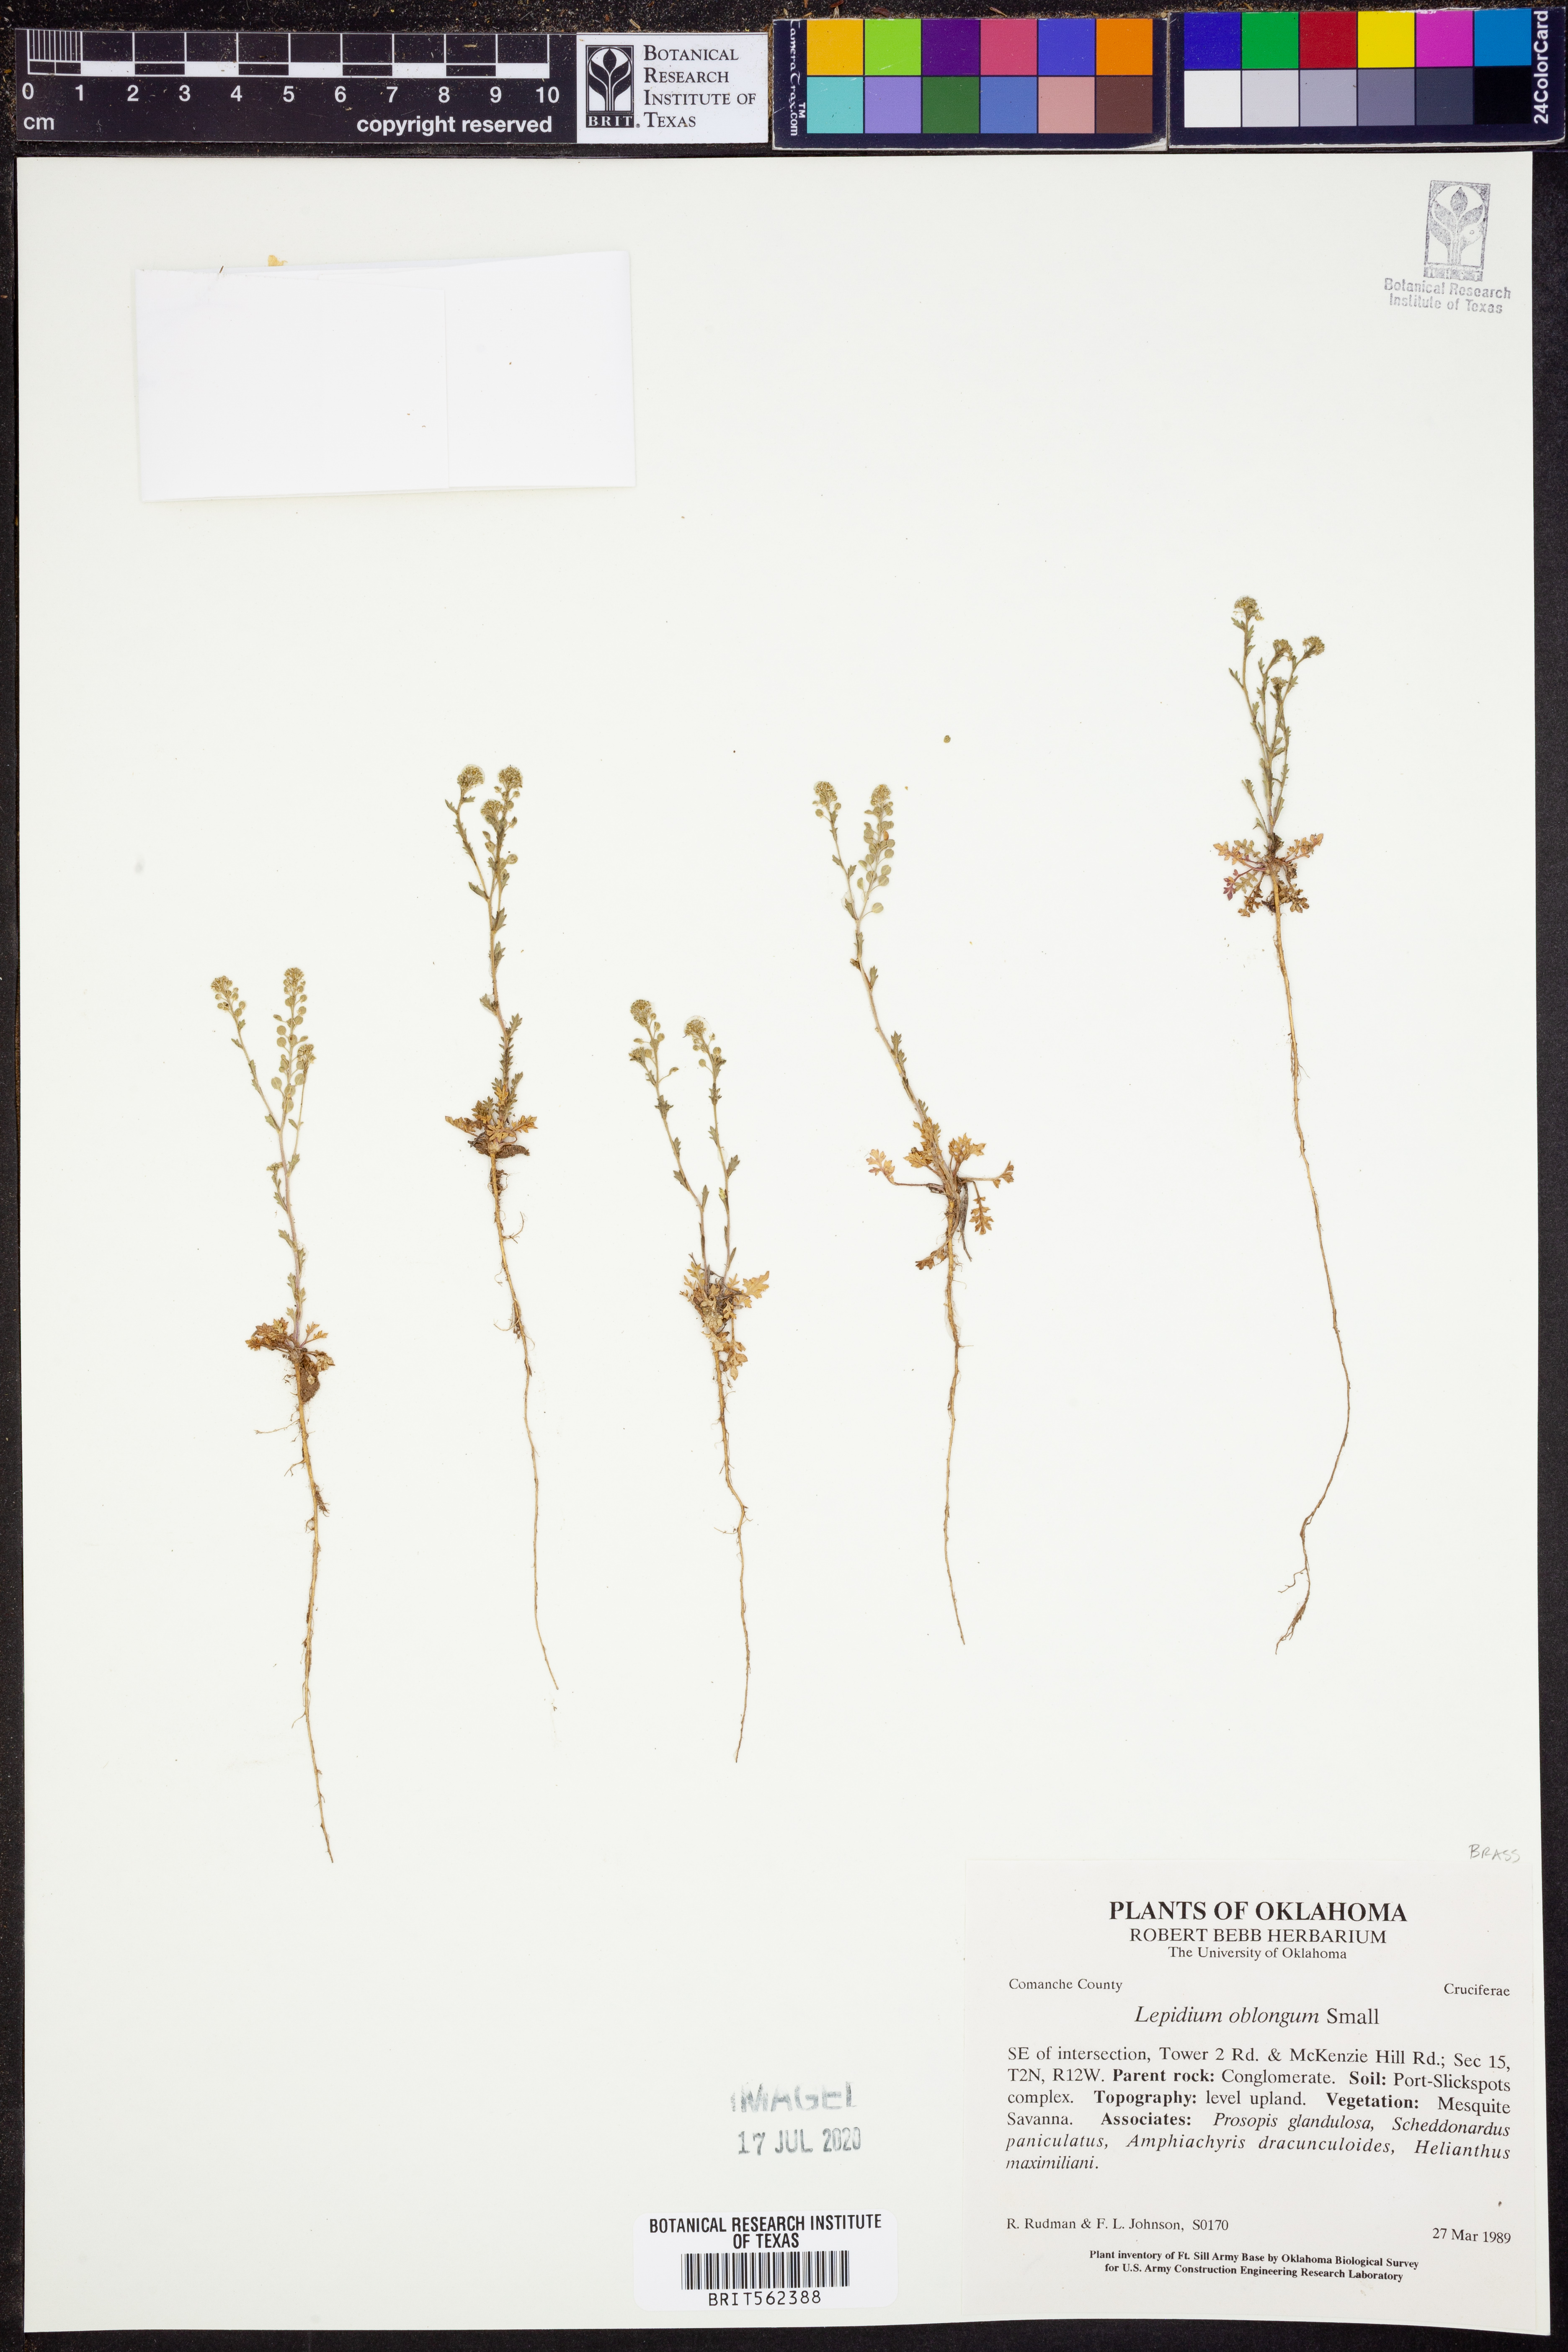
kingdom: Plantae
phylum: Tracheophyta
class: Magnoliopsida
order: Brassicales
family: Brassicaceae
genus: Lepidium
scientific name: Lepidium oblongum
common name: Veiny pepperweed
